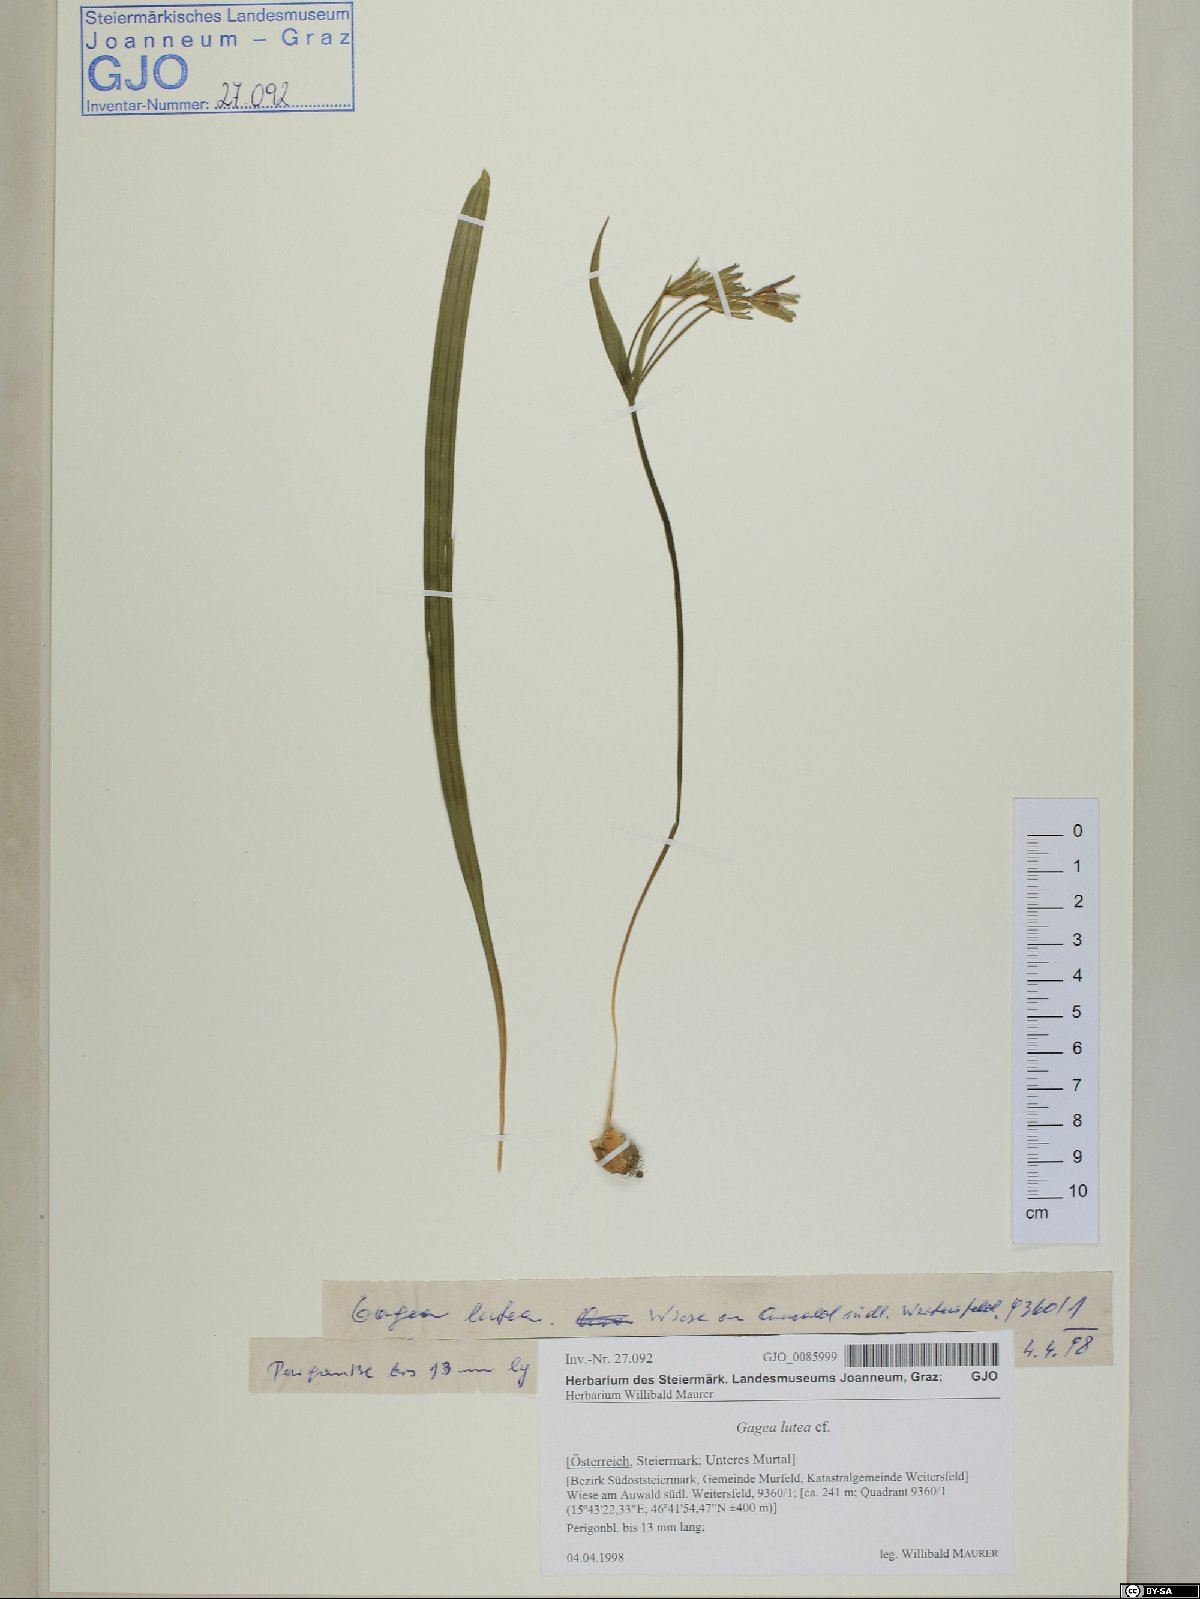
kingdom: Plantae
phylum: Tracheophyta
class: Liliopsida
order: Liliales
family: Liliaceae
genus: Gagea
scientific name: Gagea lutea
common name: Yellow star-of-bethlehem
